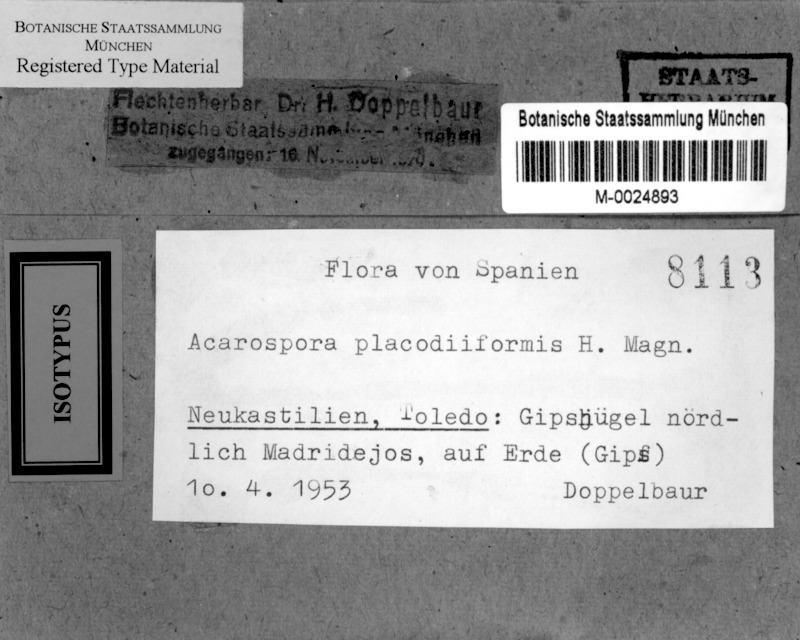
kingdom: Fungi
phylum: Ascomycota
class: Lecanoromycetes
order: Acarosporales
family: Acarosporaceae
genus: Acarospora
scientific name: Acarospora placodiiformis
